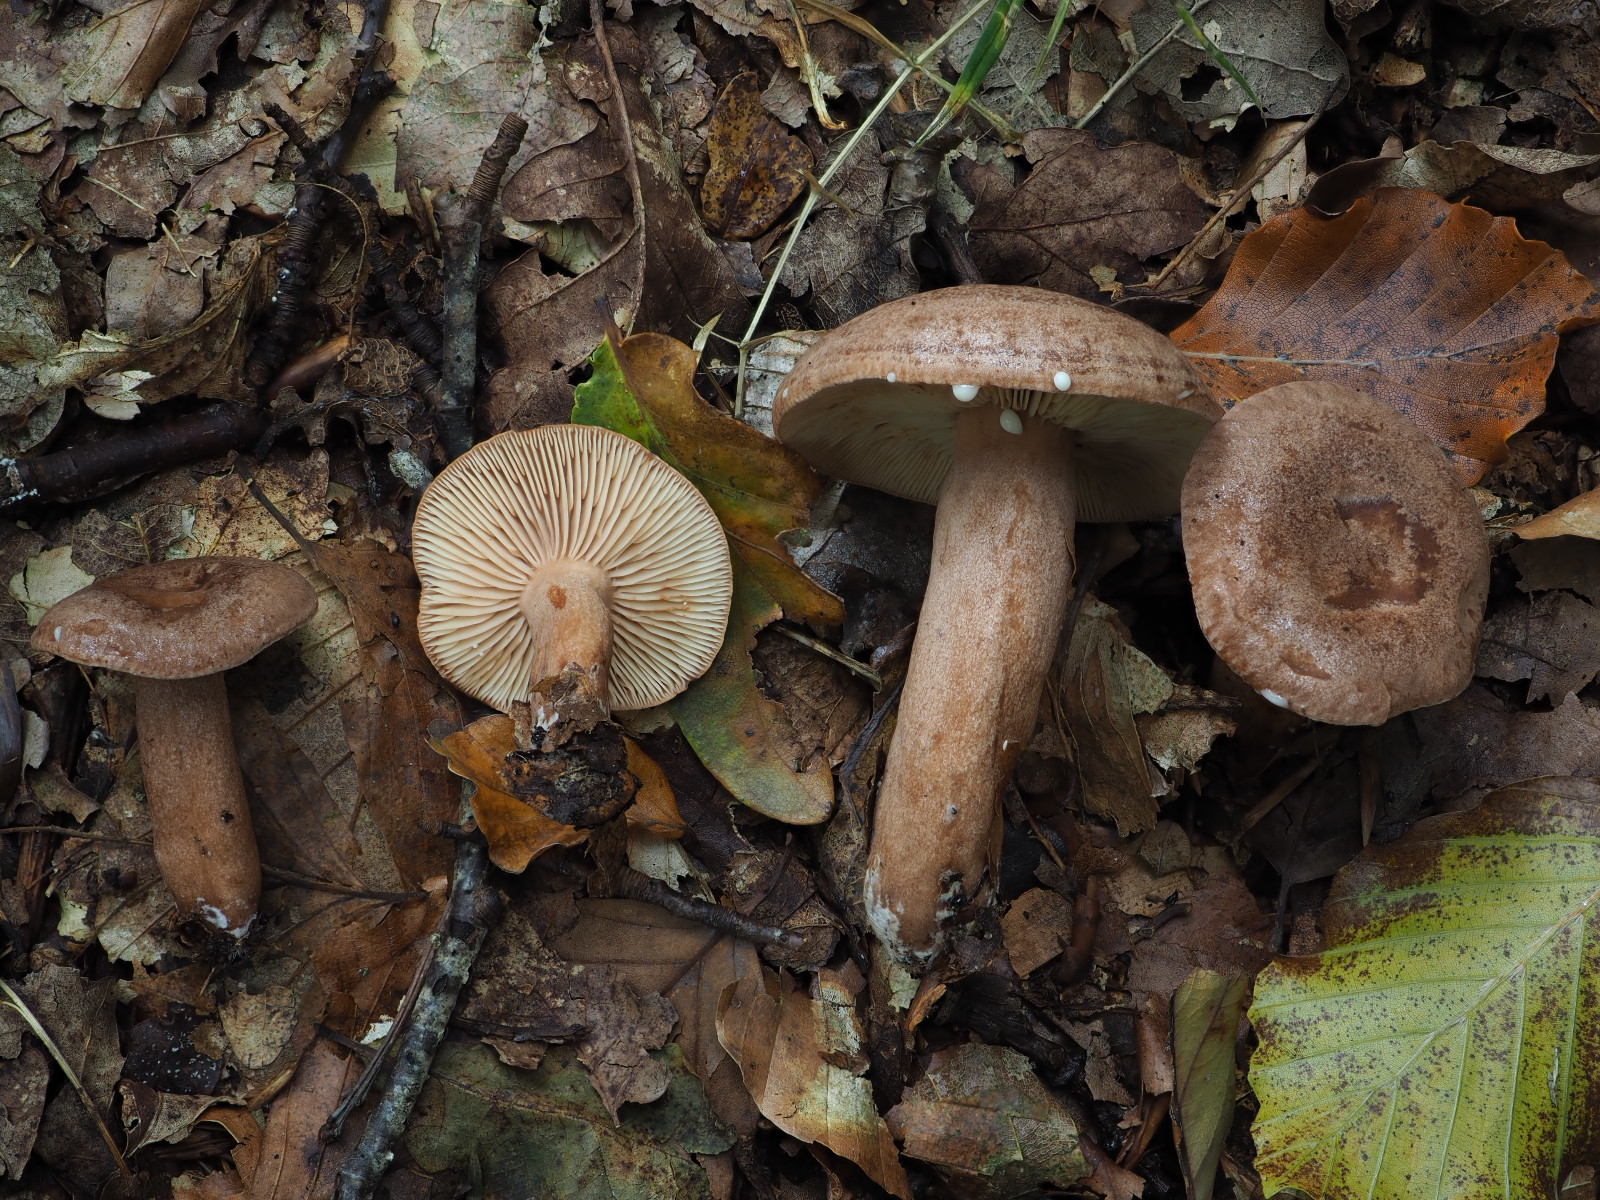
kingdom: Fungi
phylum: Basidiomycota
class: Agaricomycetes
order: Russulales
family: Russulaceae
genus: Lactarius
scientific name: Lactarius quietus
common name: ege-mælkehat
